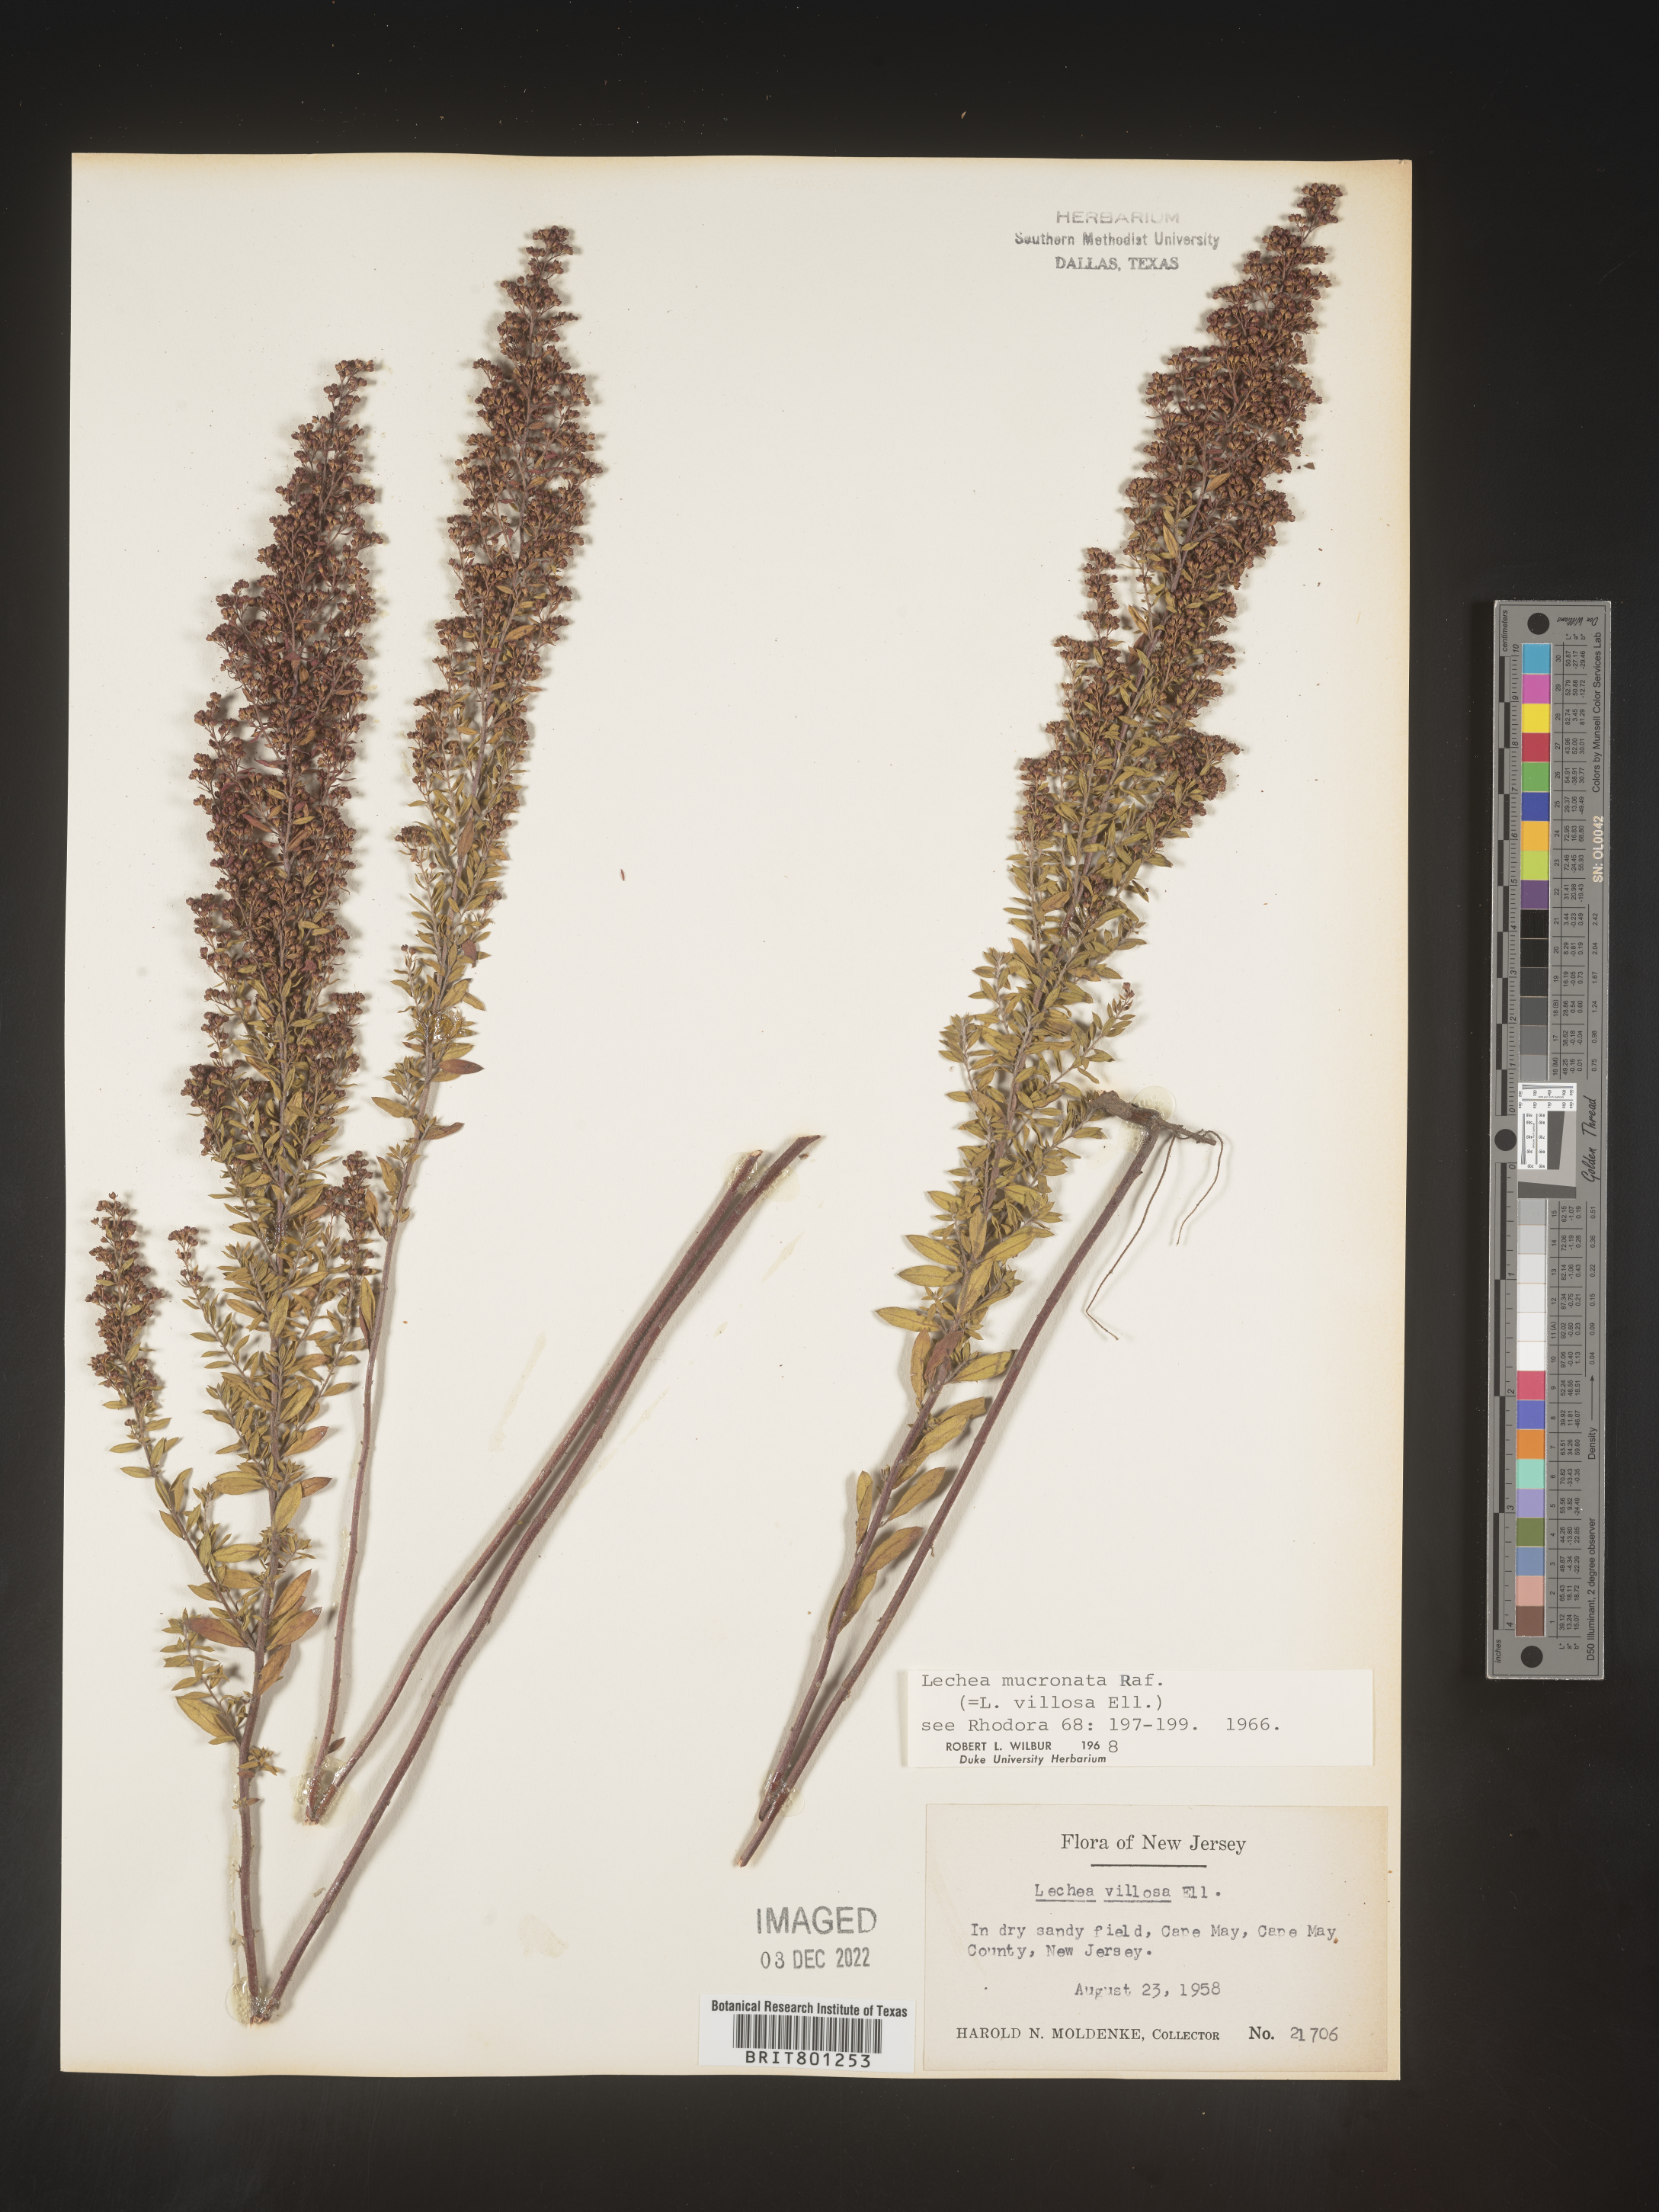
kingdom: Plantae
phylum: Tracheophyta
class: Magnoliopsida
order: Malvales
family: Cistaceae
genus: Lechea
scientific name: Lechea mucronata
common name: Hairy pinweed
